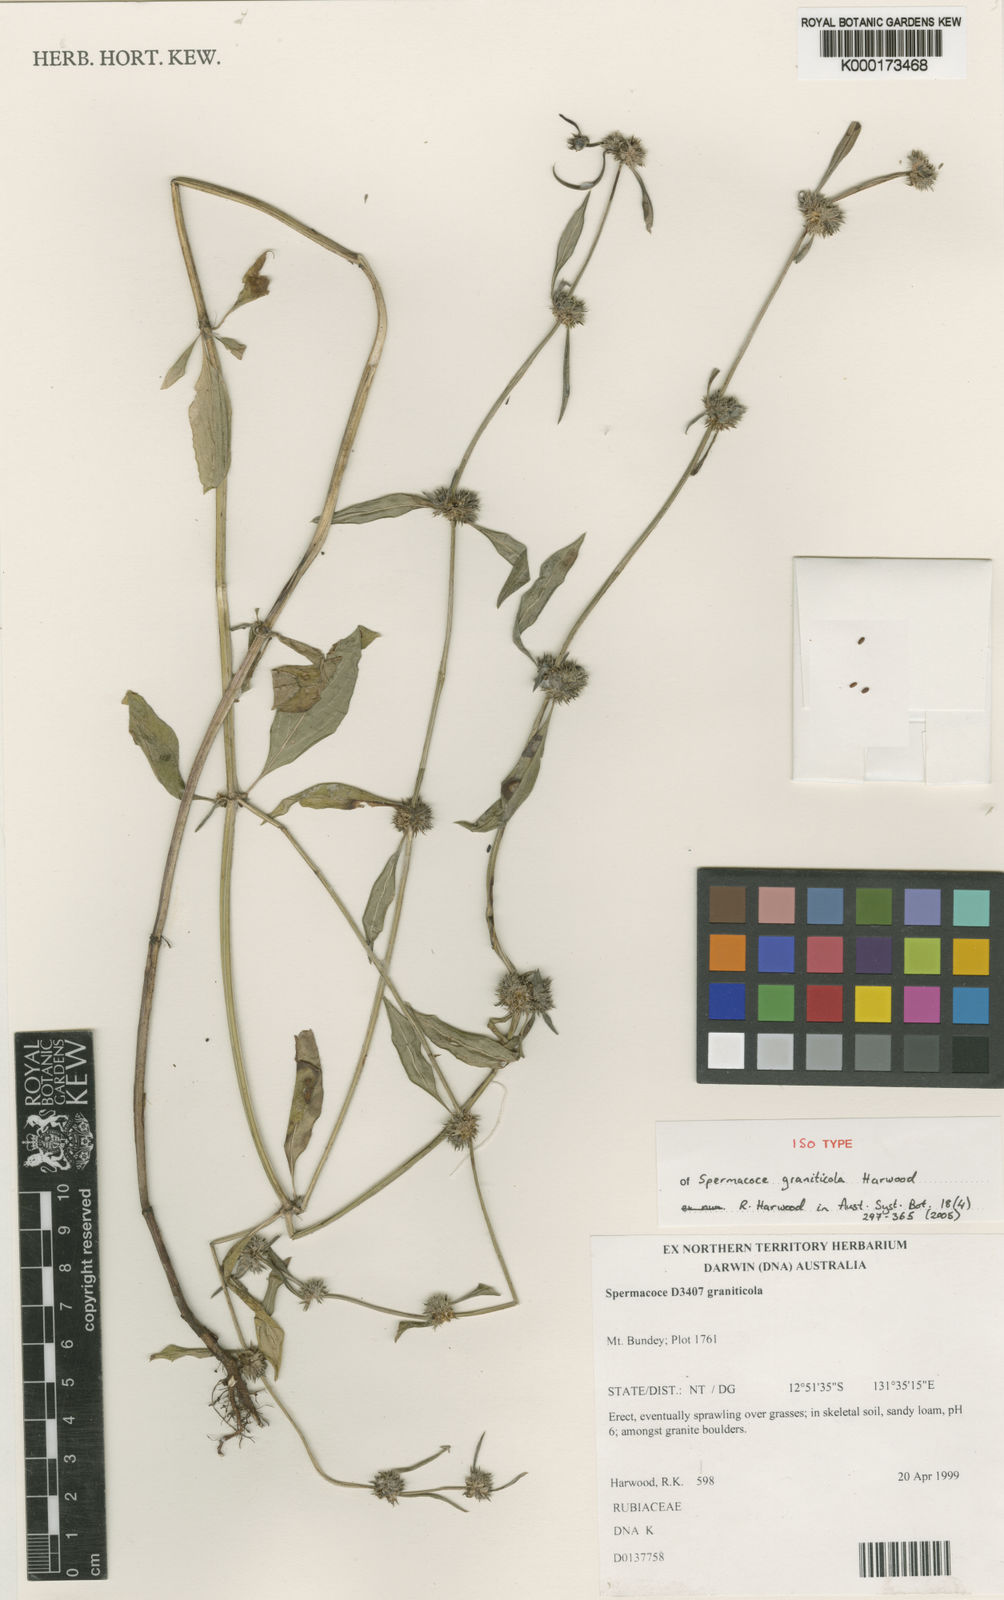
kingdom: Plantae
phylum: Tracheophyta
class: Magnoliopsida
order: Gentianales
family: Rubiaceae
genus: Spermacoce
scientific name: Spermacoce graniticola
